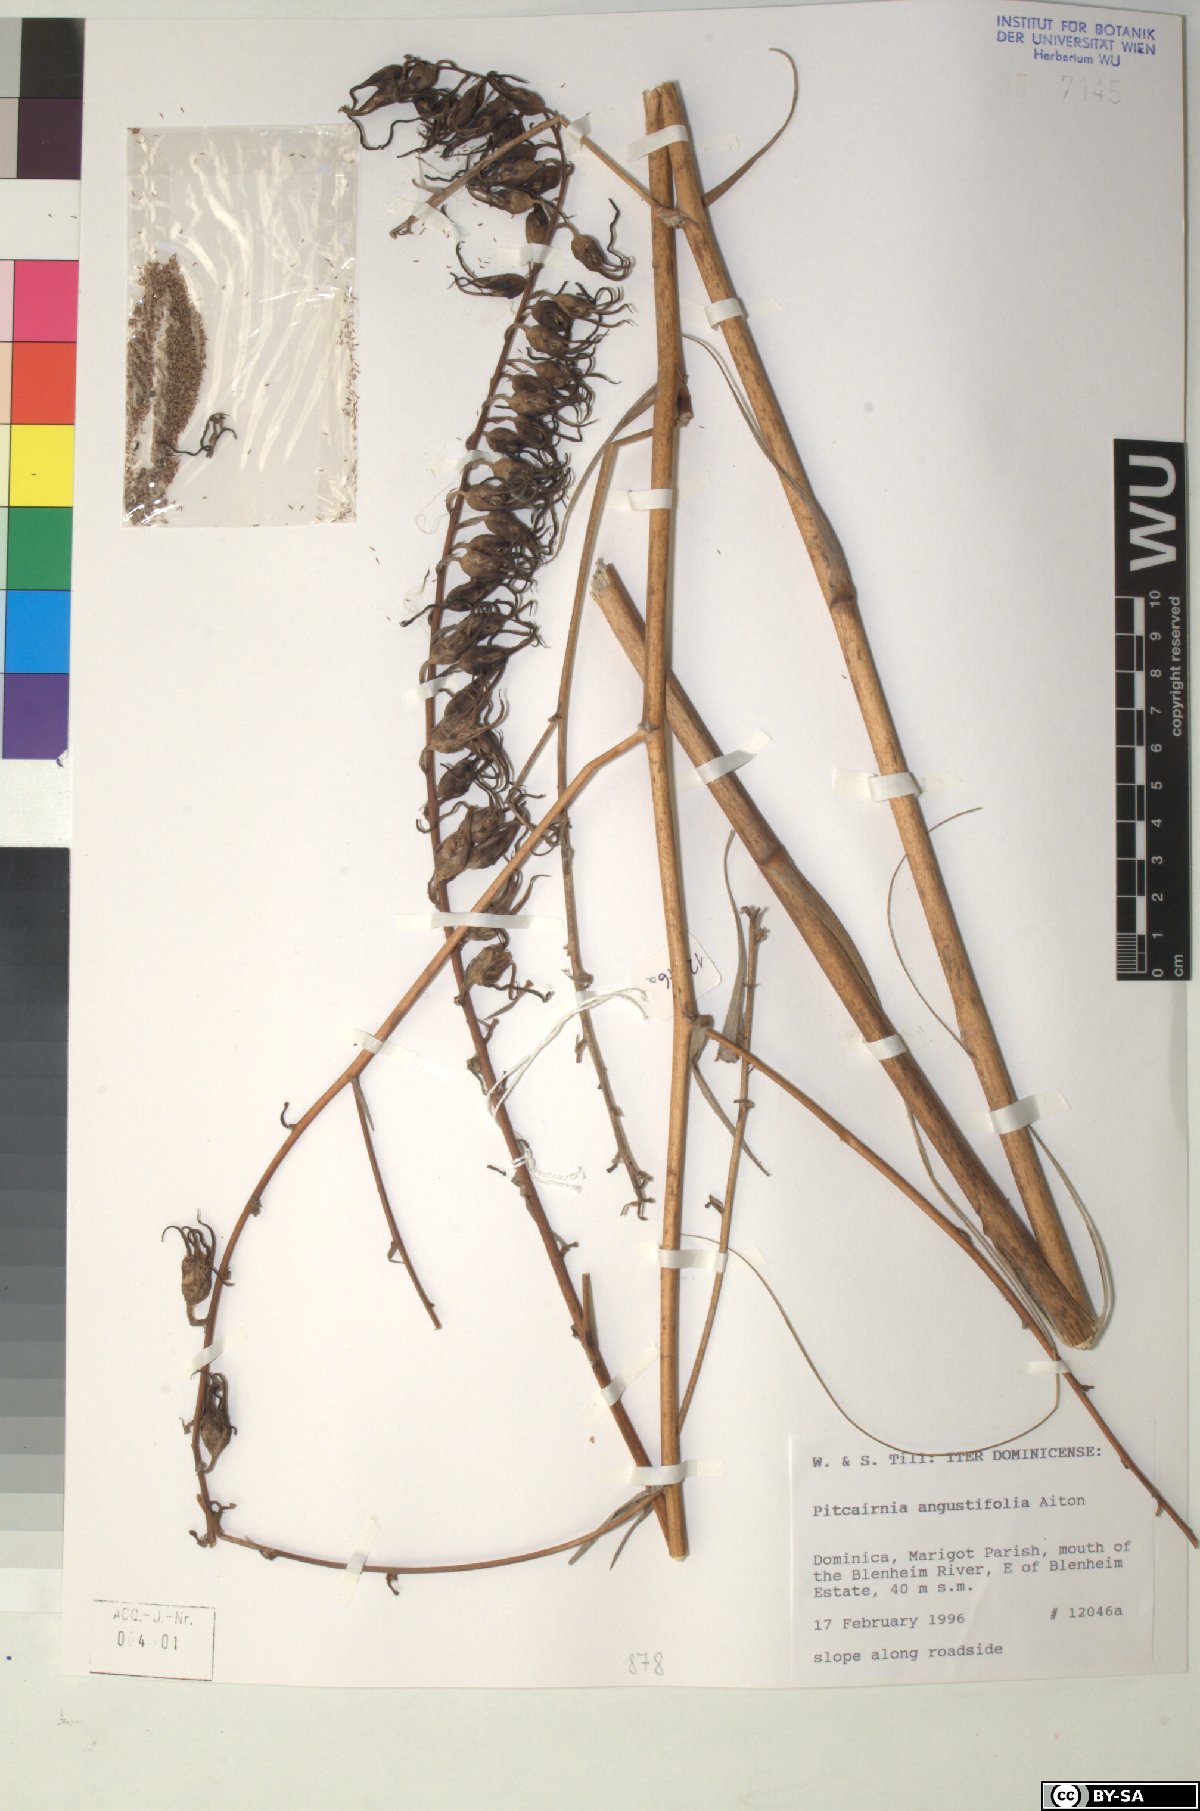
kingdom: Plantae
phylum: Tracheophyta
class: Liliopsida
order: Poales
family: Bromeliaceae
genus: Pitcairnia
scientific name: Pitcairnia angustifolia
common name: Clapper
